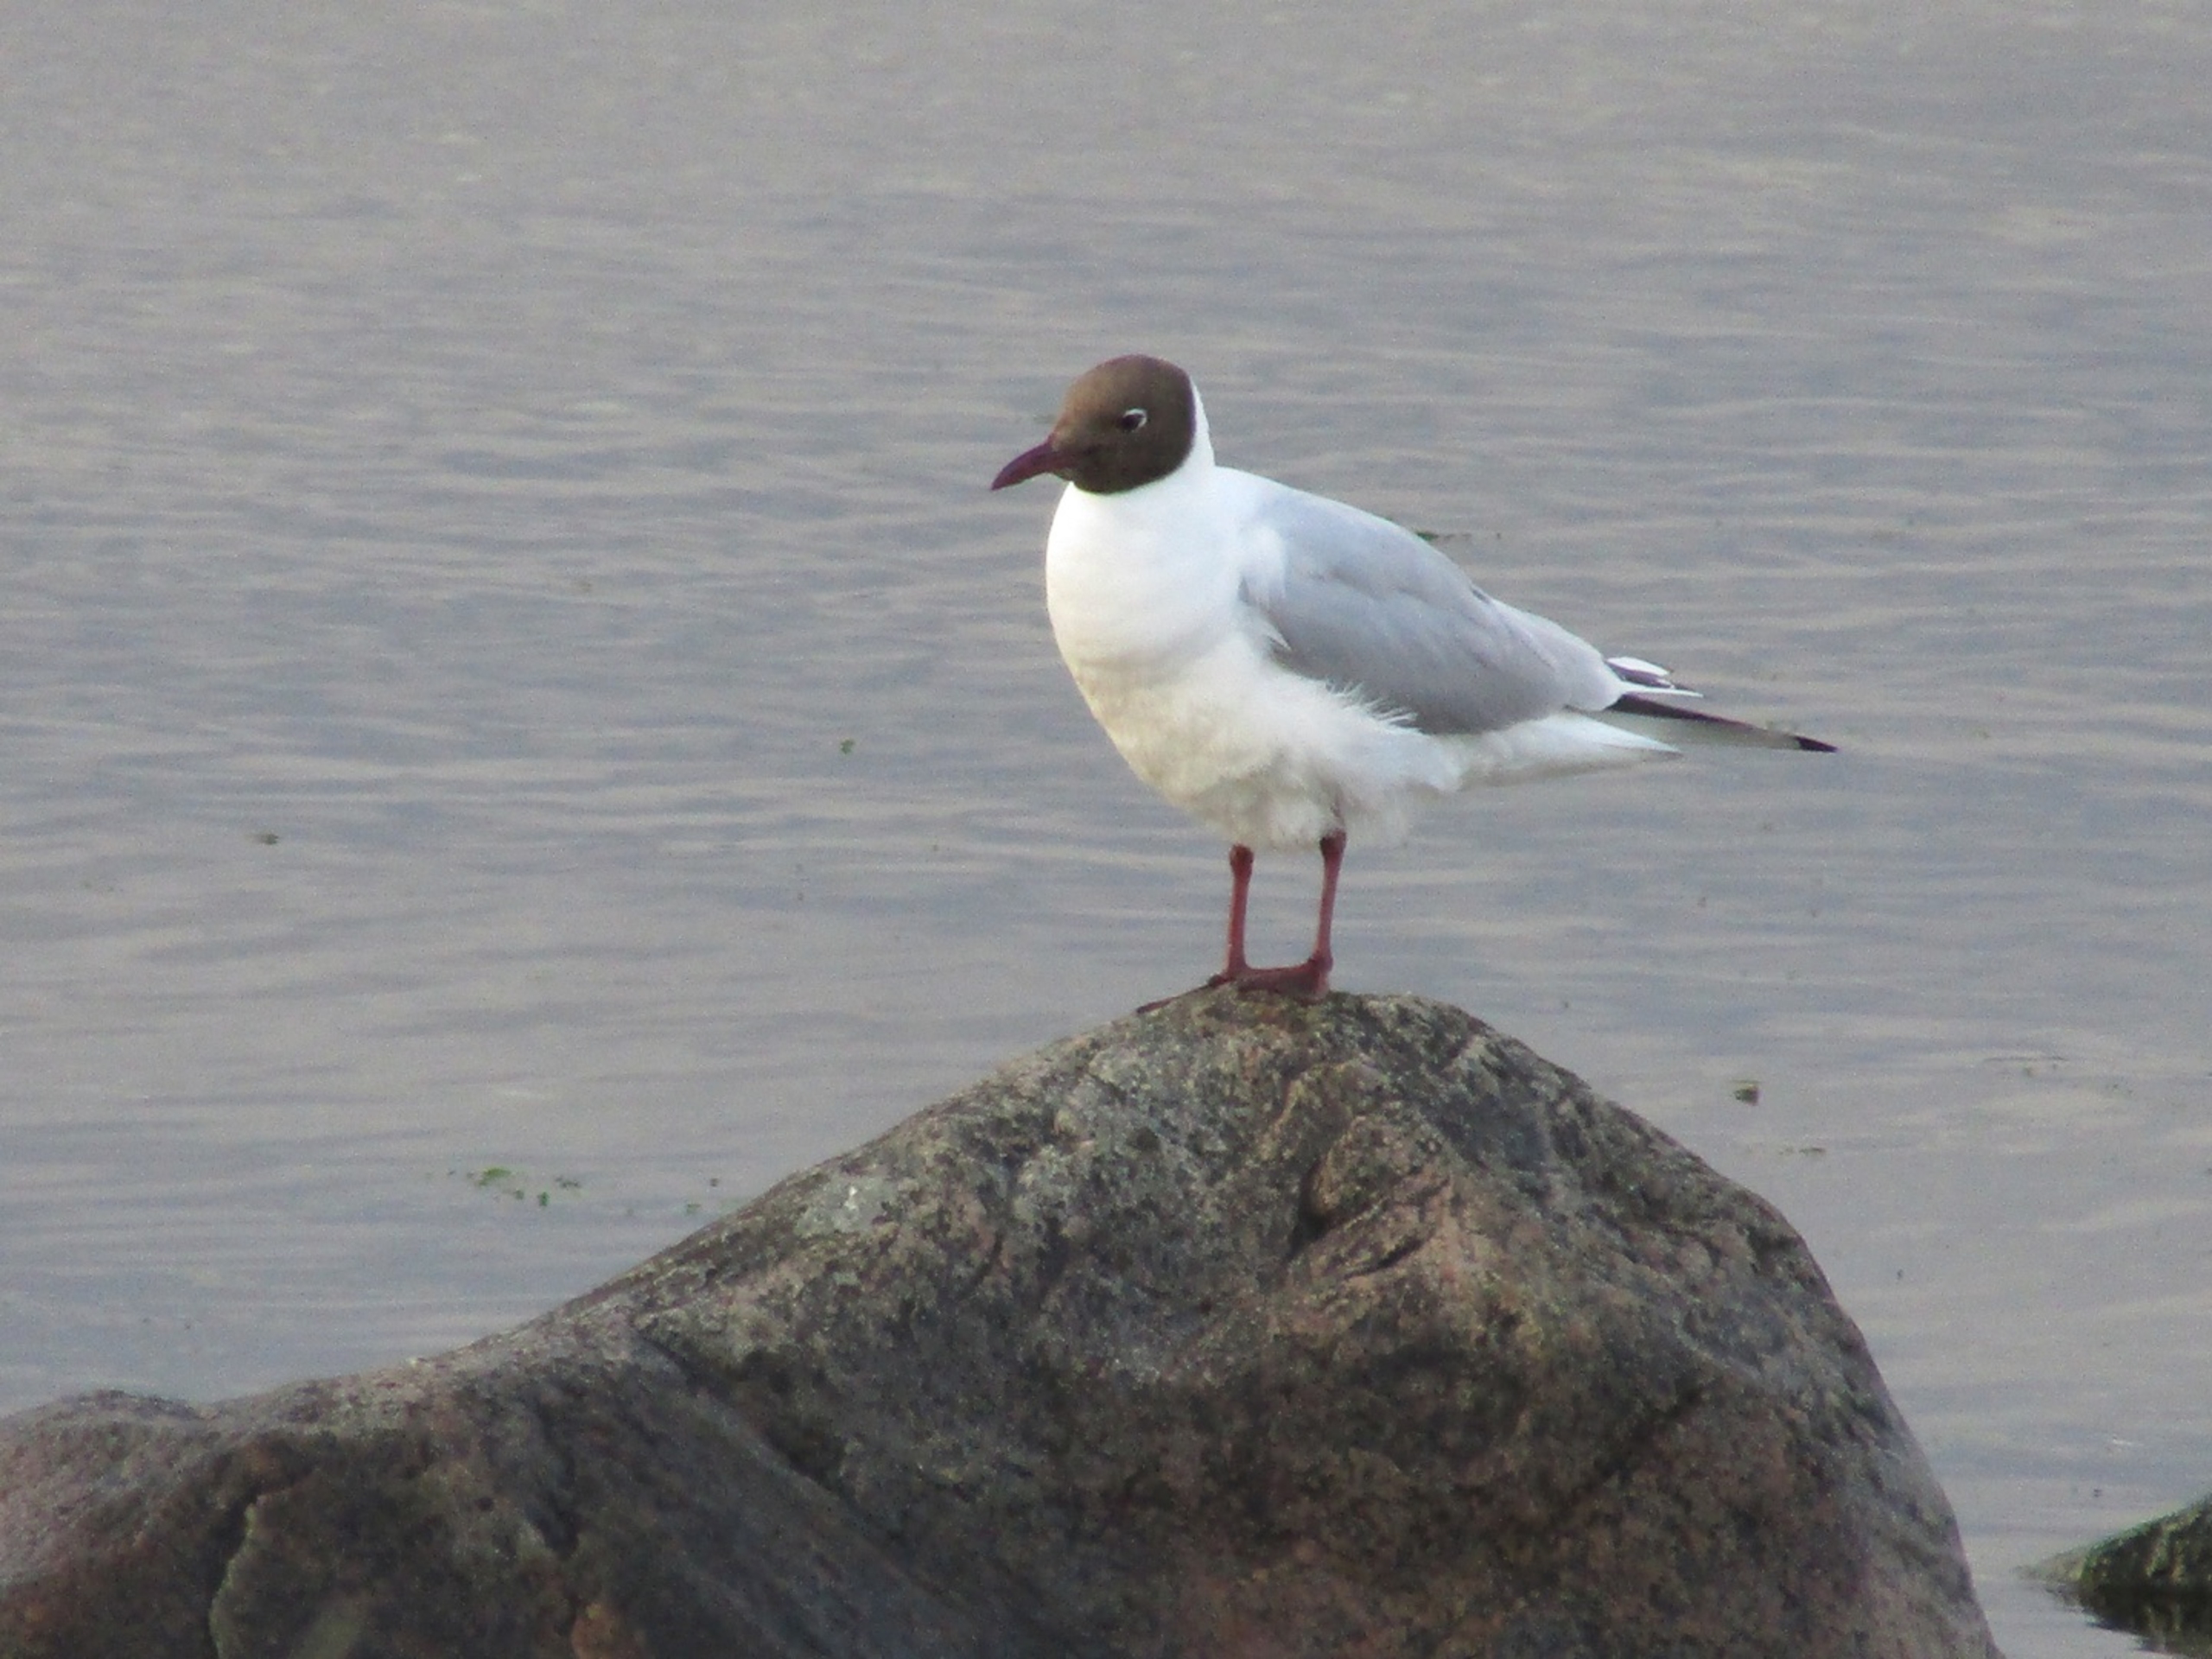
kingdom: Animalia
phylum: Chordata
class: Aves
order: Charadriiformes
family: Laridae
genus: Chroicocephalus
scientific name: Chroicocephalus ridibundus
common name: Hættemåge
